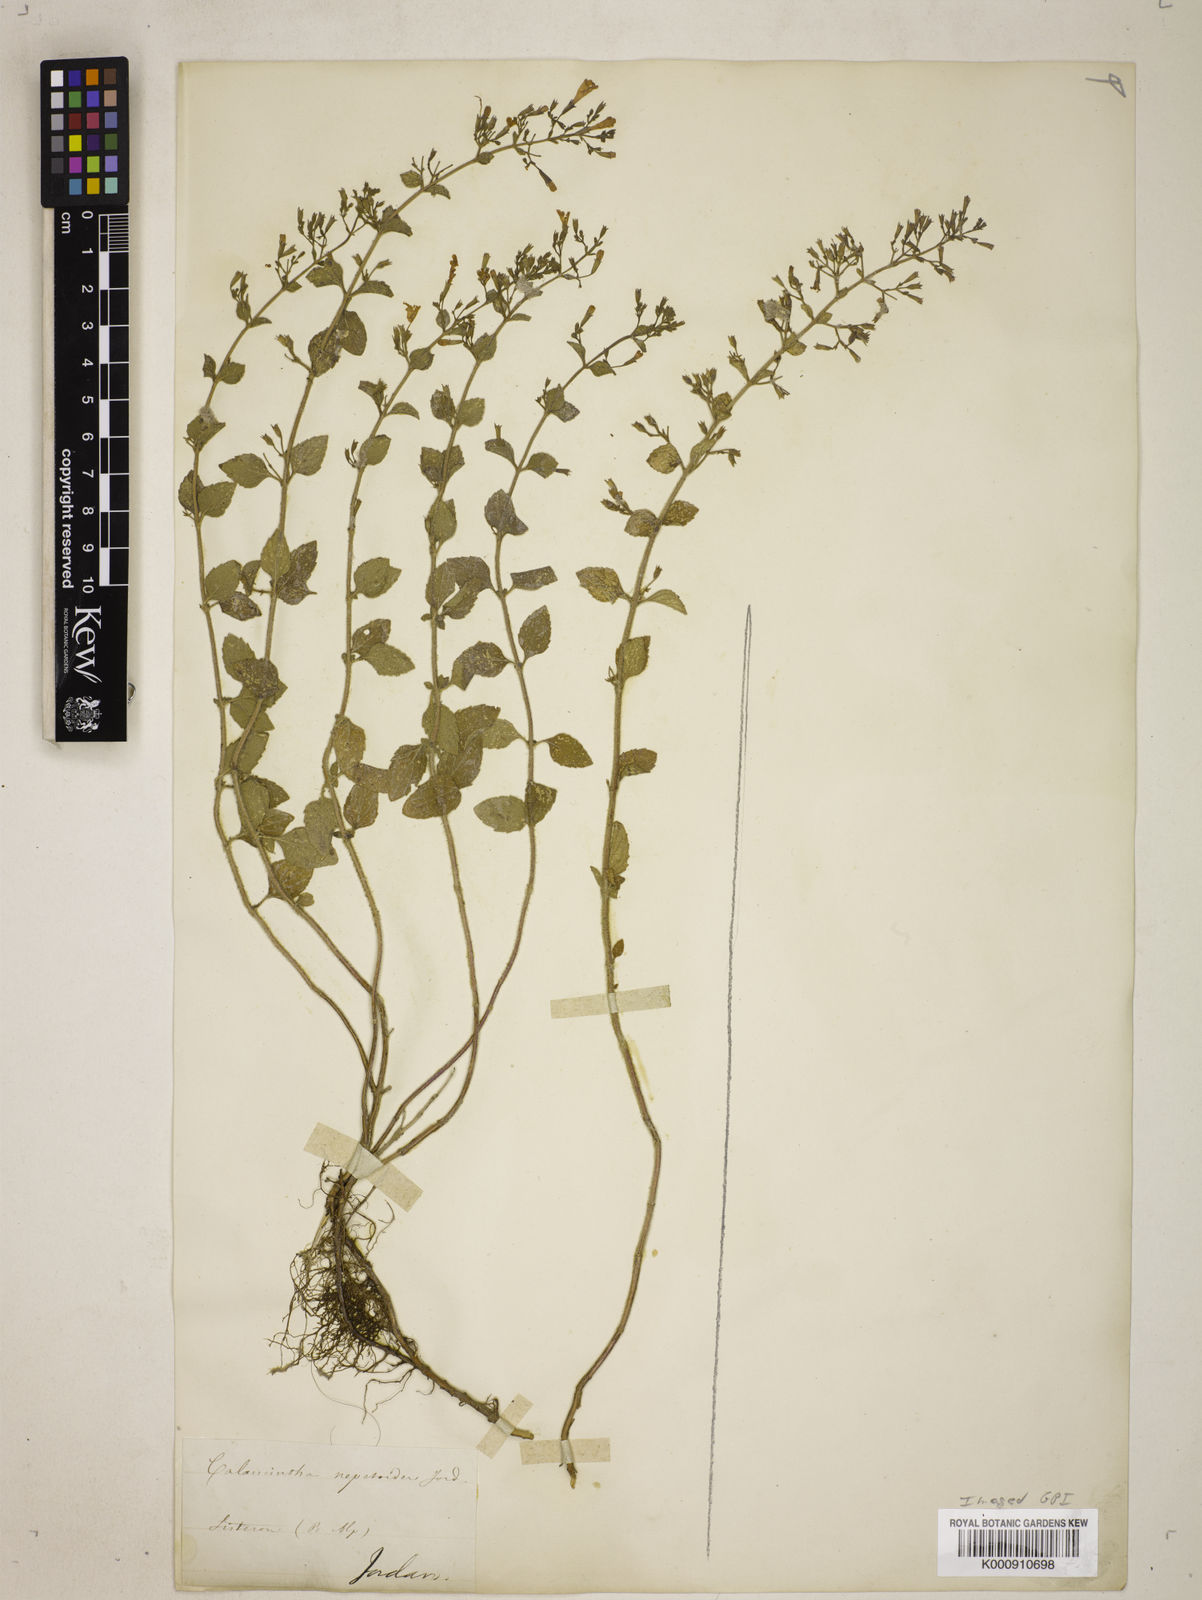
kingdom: Plantae
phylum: Tracheophyta
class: Magnoliopsida
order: Lamiales
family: Lamiaceae
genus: Clinopodium
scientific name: Clinopodium nepeta
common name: Lesser calamint
